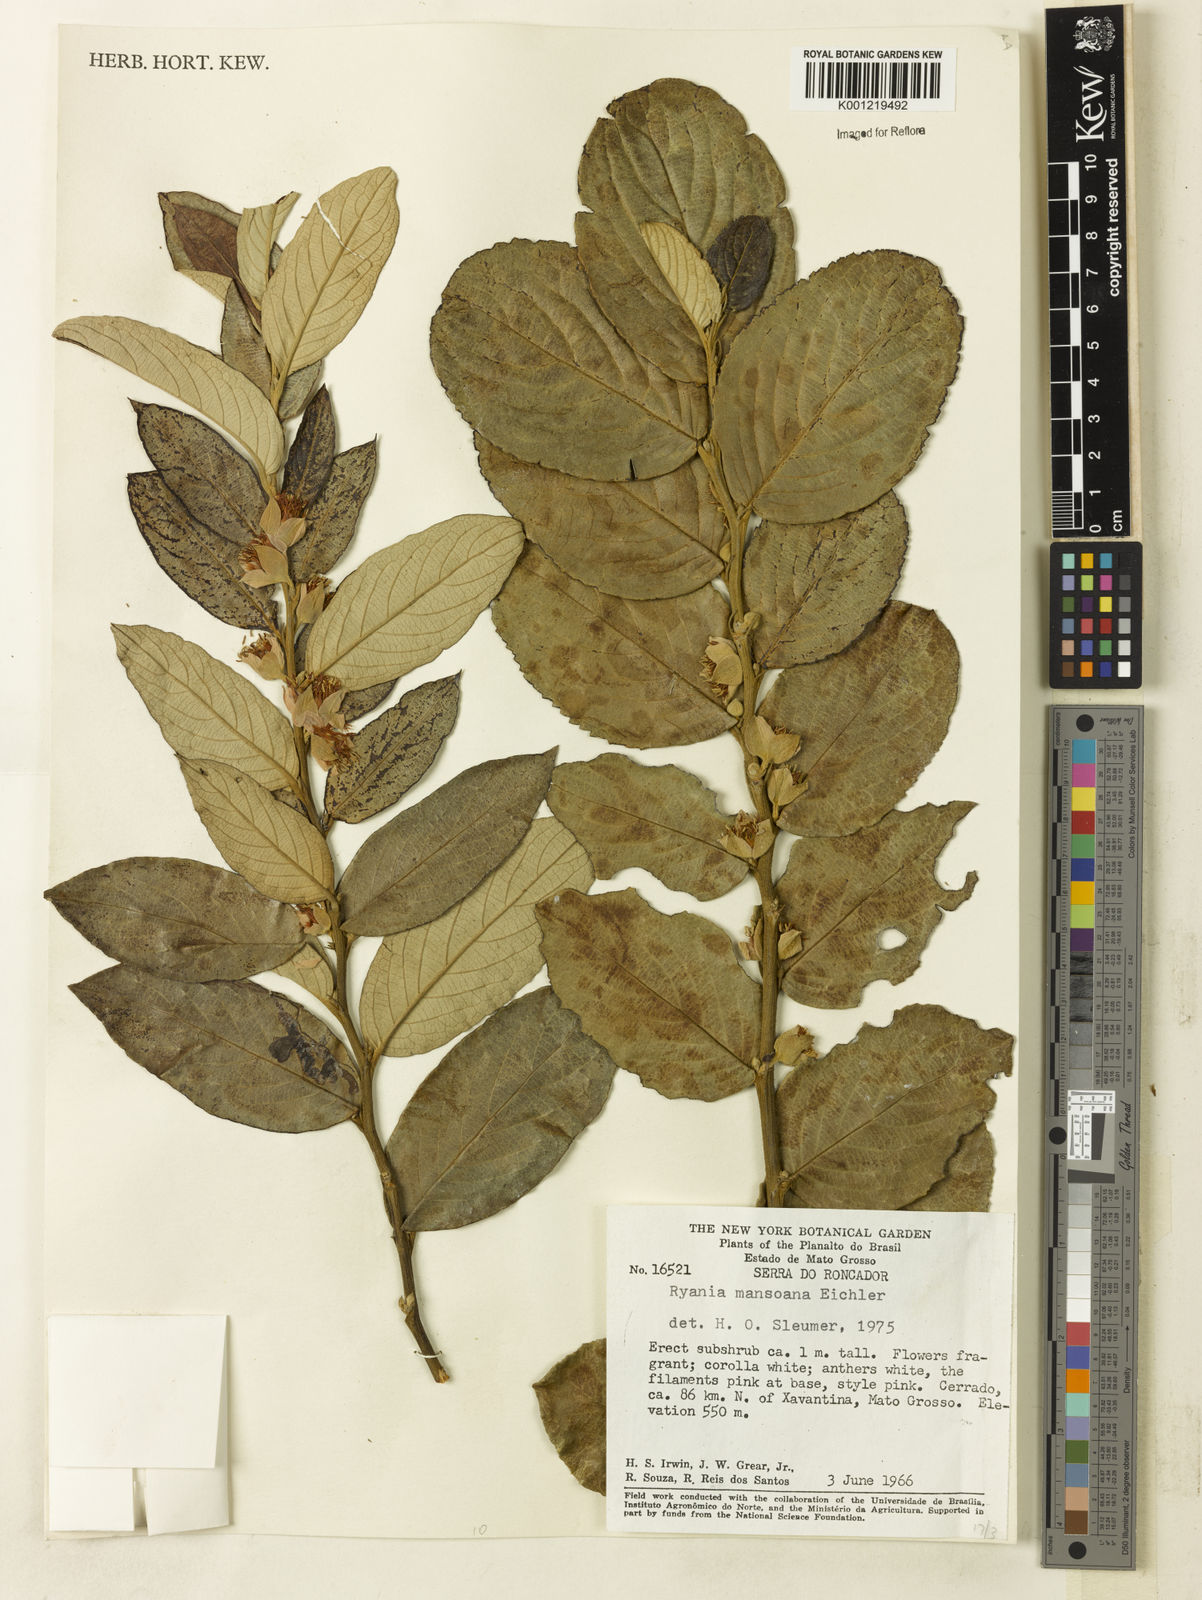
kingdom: Plantae
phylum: Tracheophyta
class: Magnoliopsida
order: Malpighiales
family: Salicaceae
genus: Ryania
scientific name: Ryania mansoana
